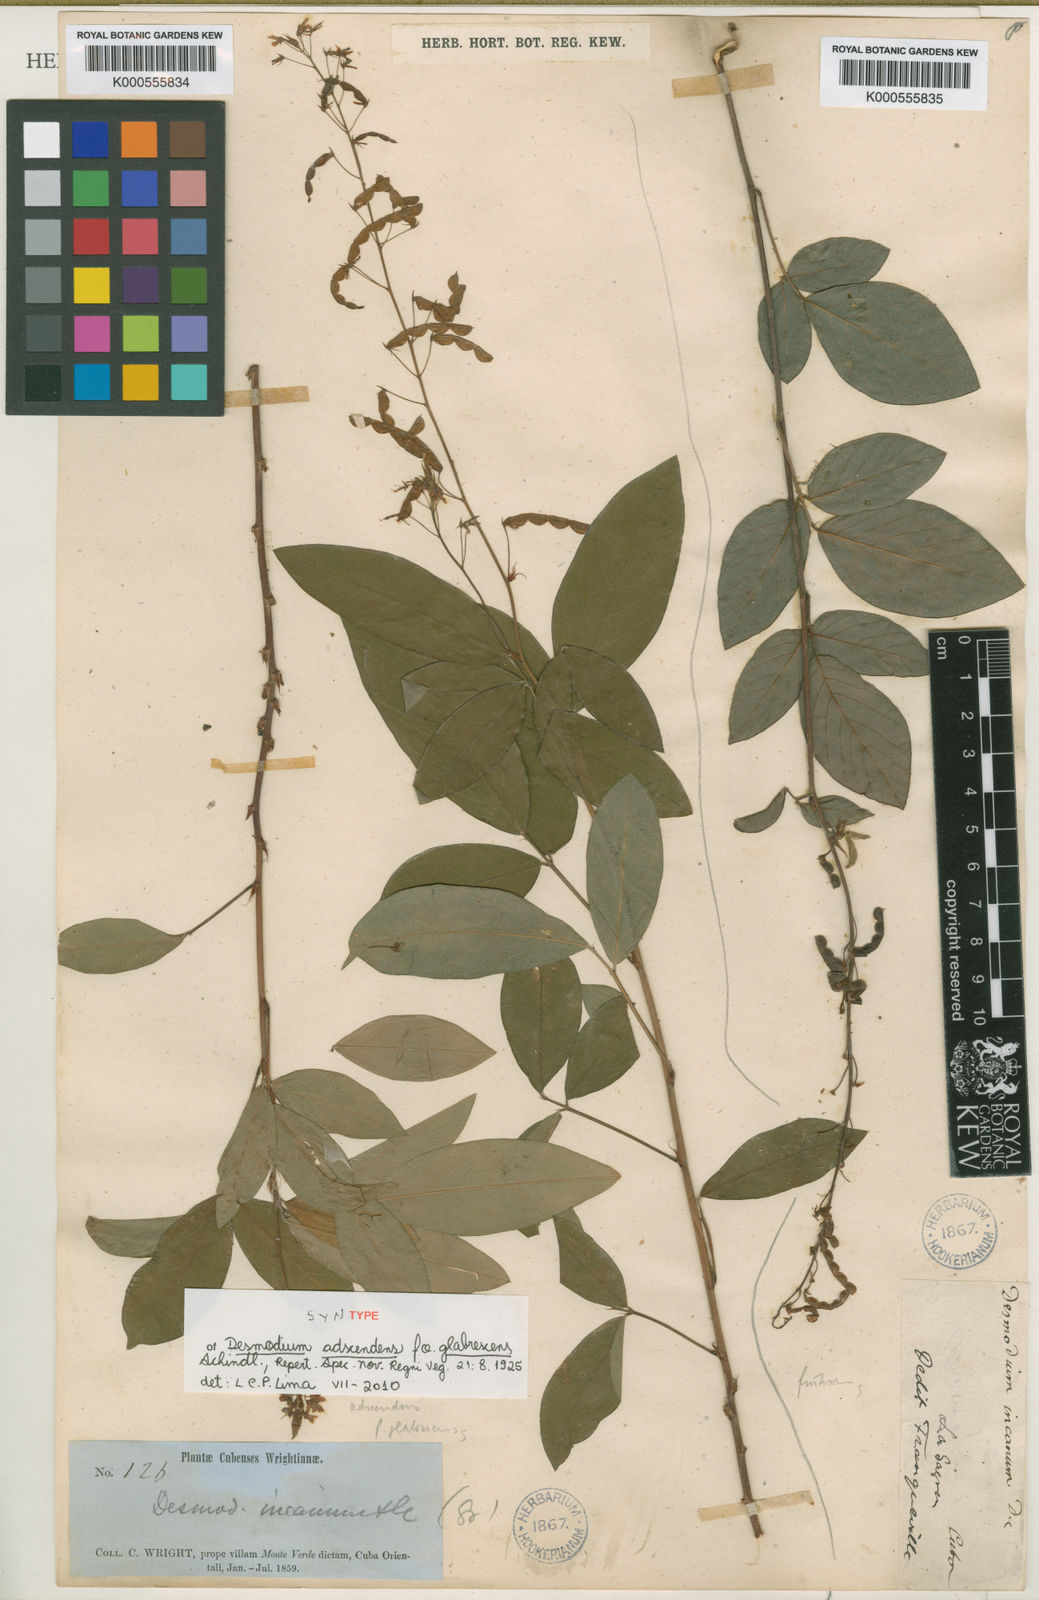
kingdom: Plantae
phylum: Tracheophyta
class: Magnoliopsida
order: Fabales
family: Fabaceae
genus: Grona
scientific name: Grona adscendens
